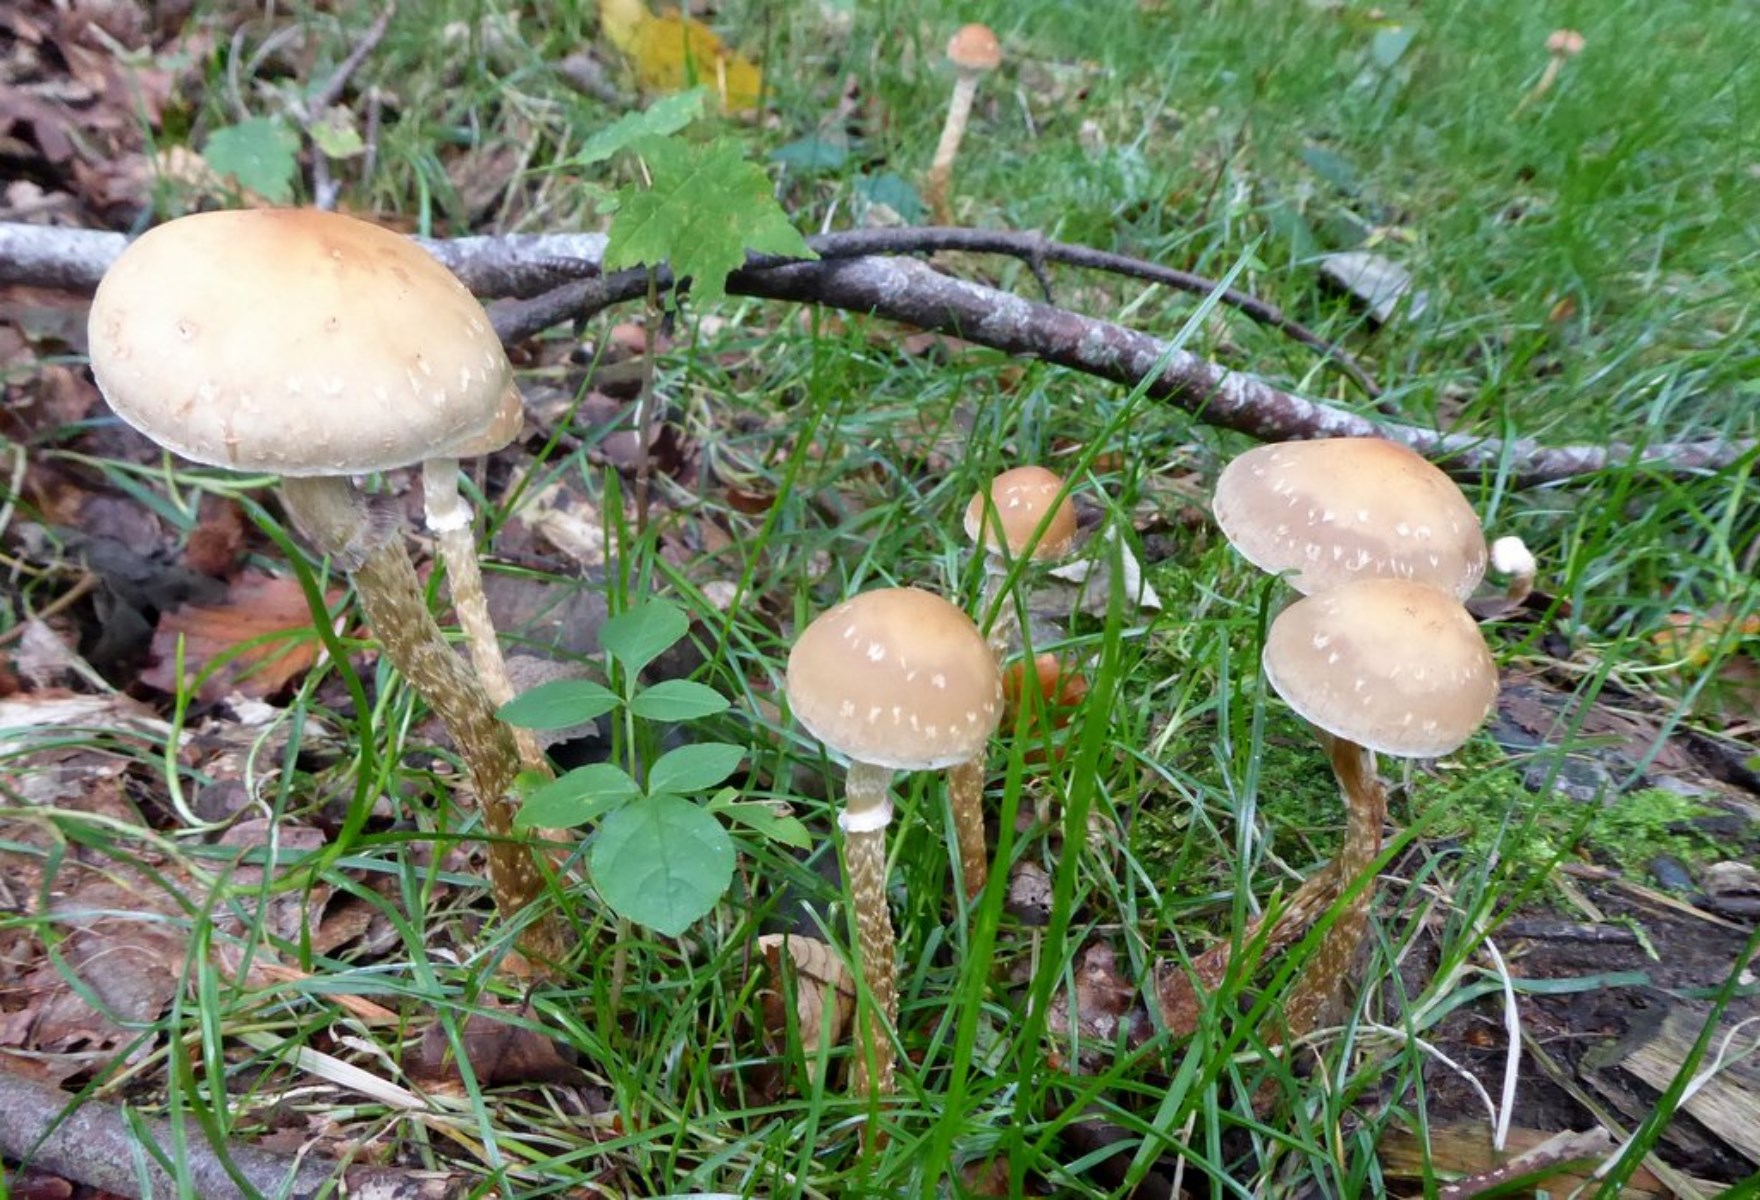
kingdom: Fungi
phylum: Basidiomycota
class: Agaricomycetes
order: Agaricales
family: Strophariaceae
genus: Leratiomyces
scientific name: Leratiomyces squamosus
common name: skællet bredblad
